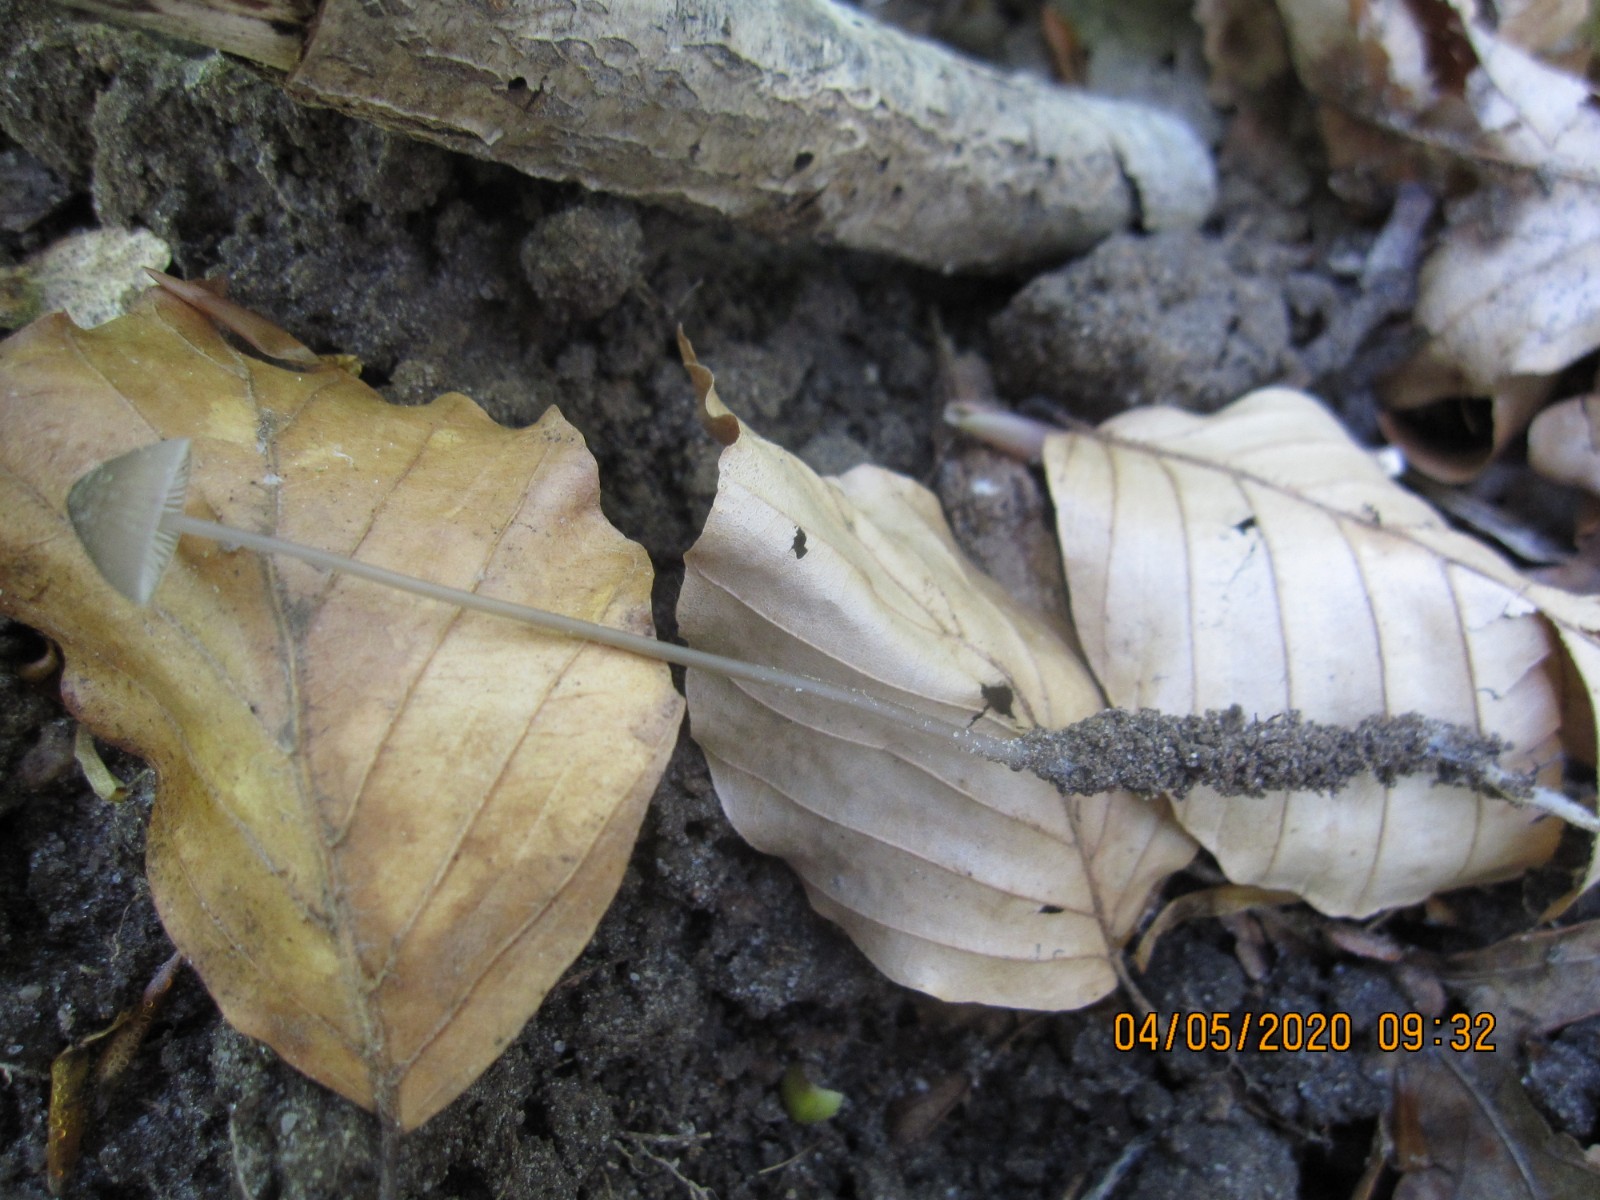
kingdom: Fungi
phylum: Basidiomycota
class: Agaricomycetes
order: Agaricales
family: Mycenaceae
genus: Mycena
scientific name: Mycena vitilis
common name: blankstokket huesvamp
